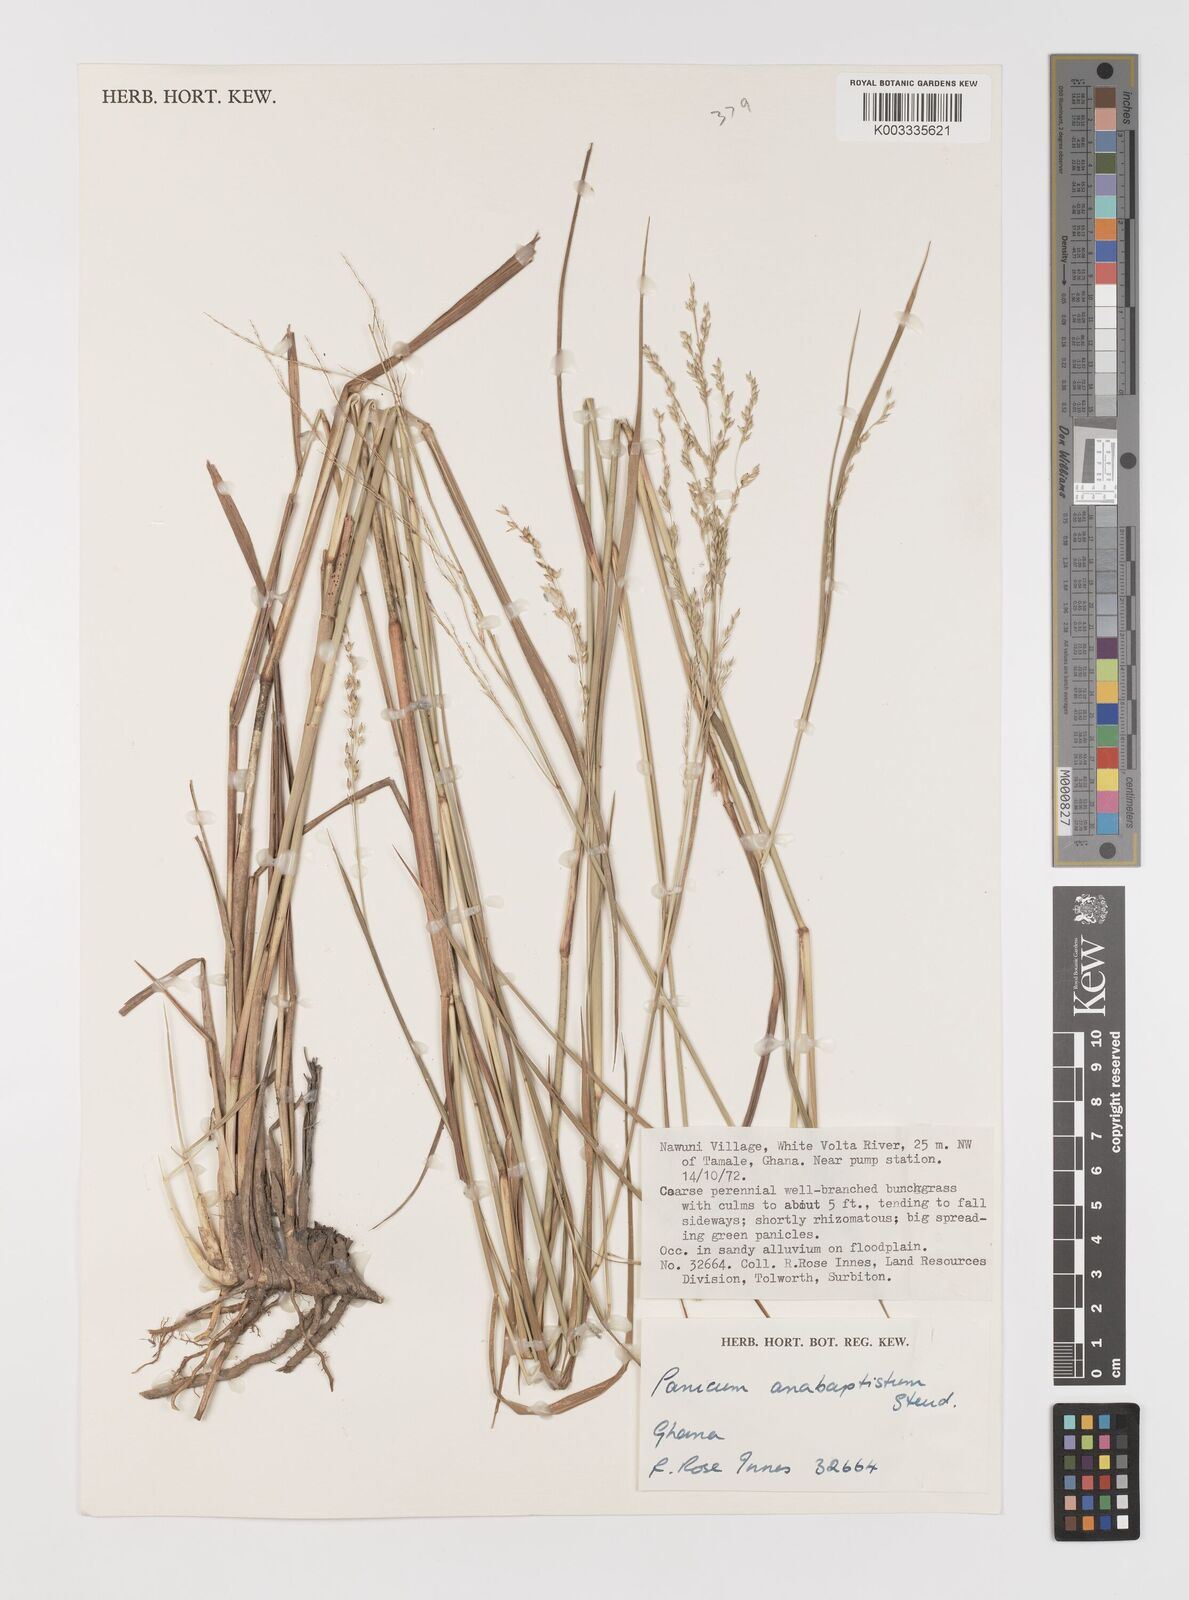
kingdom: Plantae
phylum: Tracheophyta
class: Liliopsida
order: Poales
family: Poaceae
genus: Panicum
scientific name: Panicum anabaptistum
